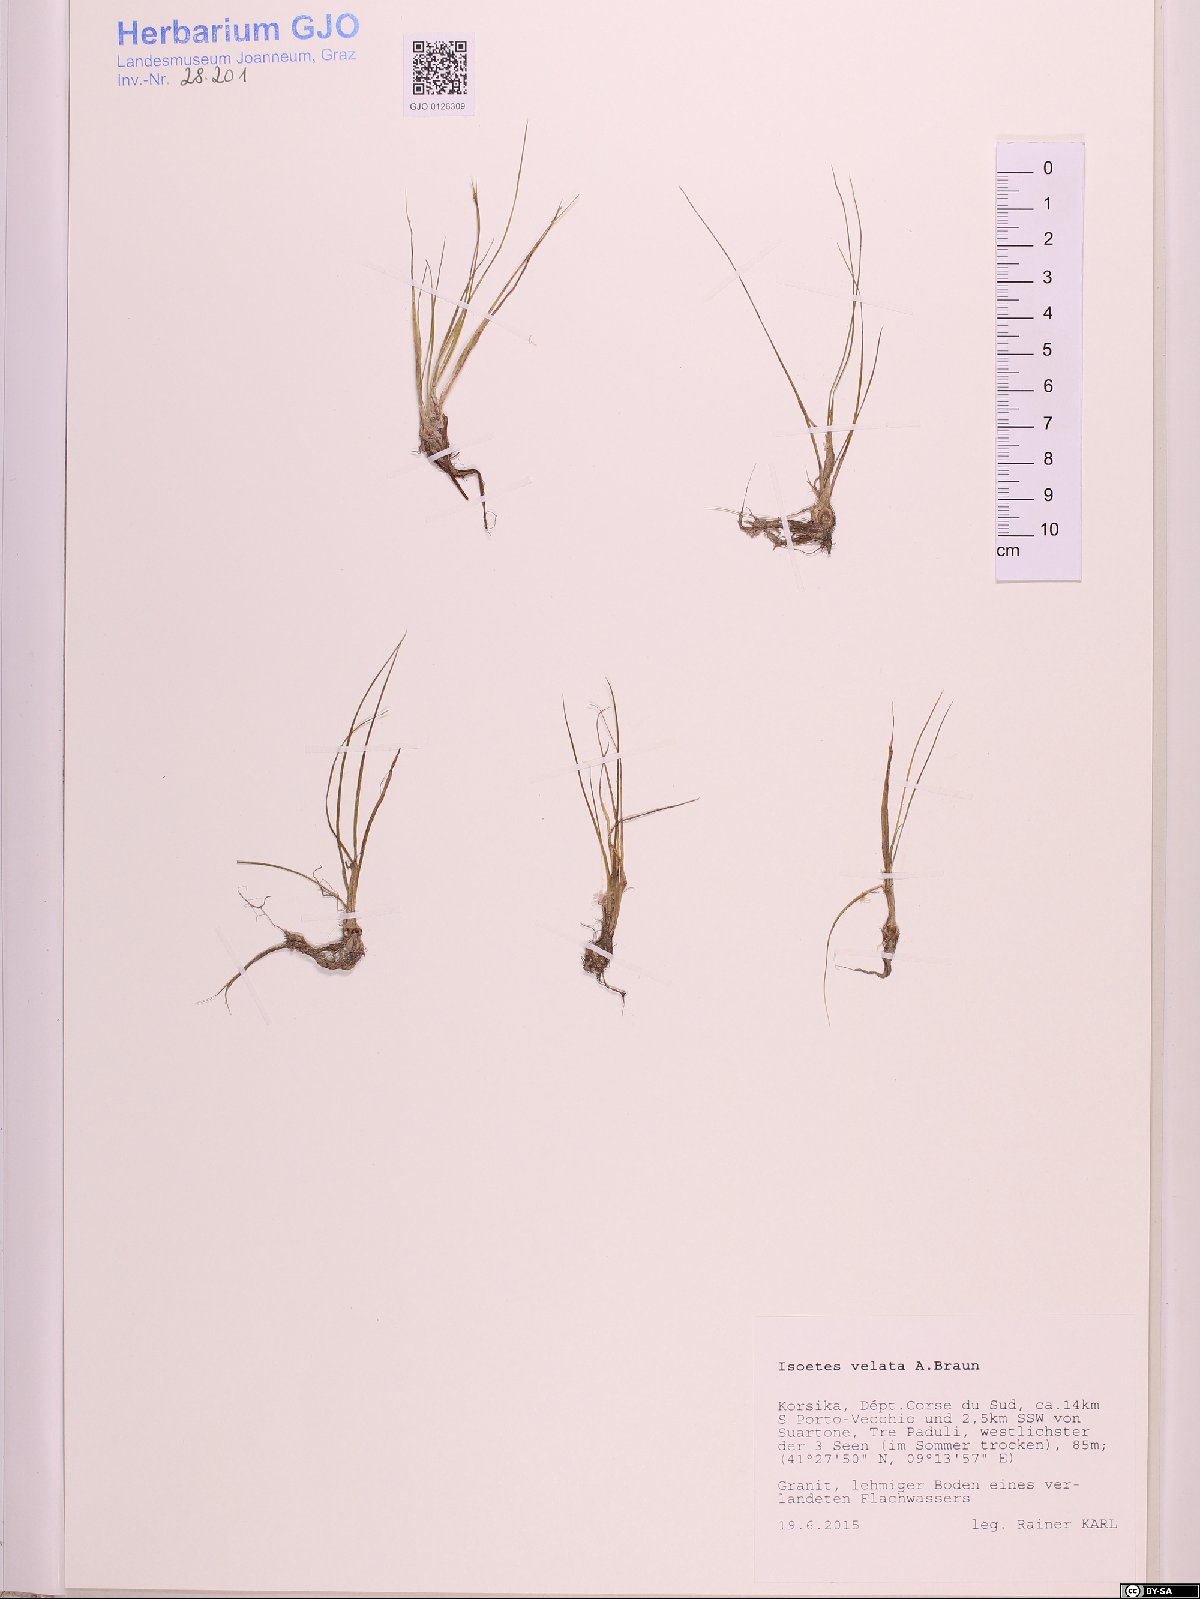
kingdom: Plantae
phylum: Tracheophyta
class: Lycopodiopsida
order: Isoetales
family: Isoetaceae
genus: Isoetes
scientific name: Isoetes longissima
